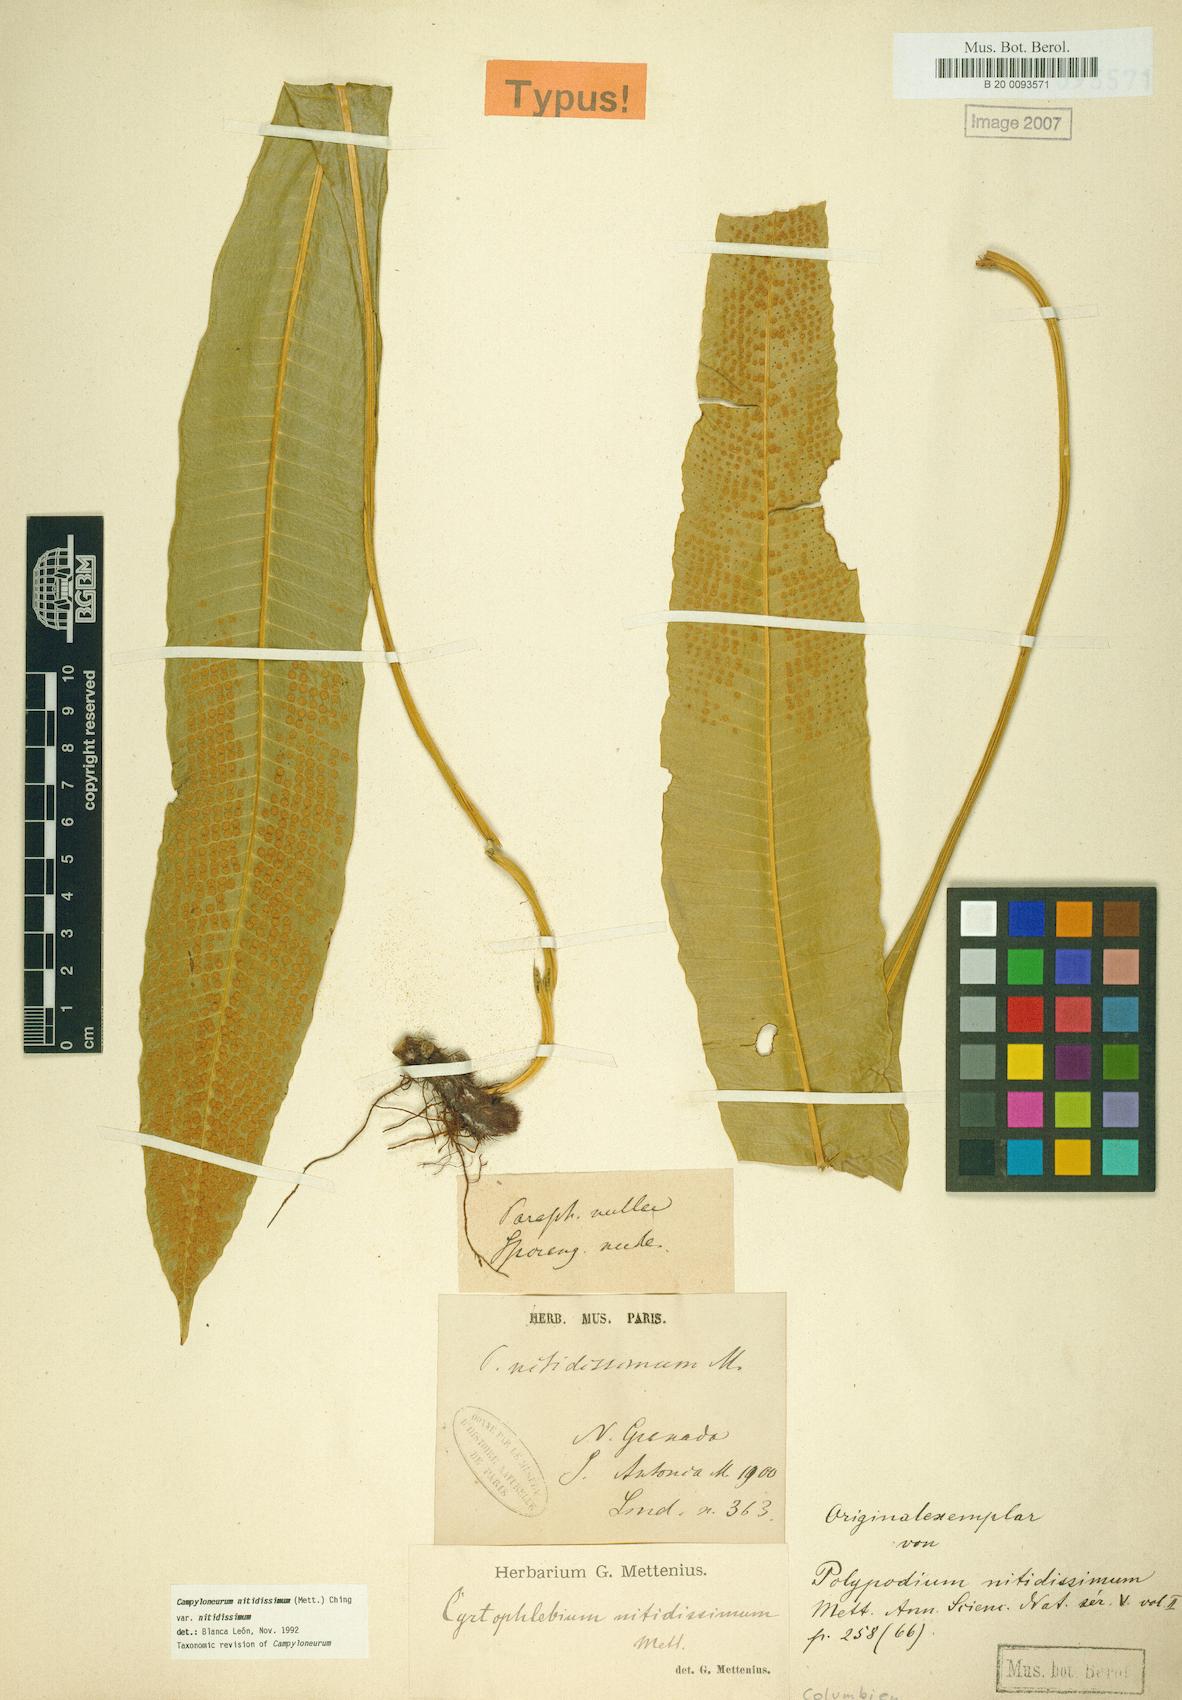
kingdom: Plantae
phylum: Tracheophyta
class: Polypodiopsida
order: Polypodiales
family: Polypodiaceae
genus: Campyloneurum
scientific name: Campyloneurum nitidissimum
